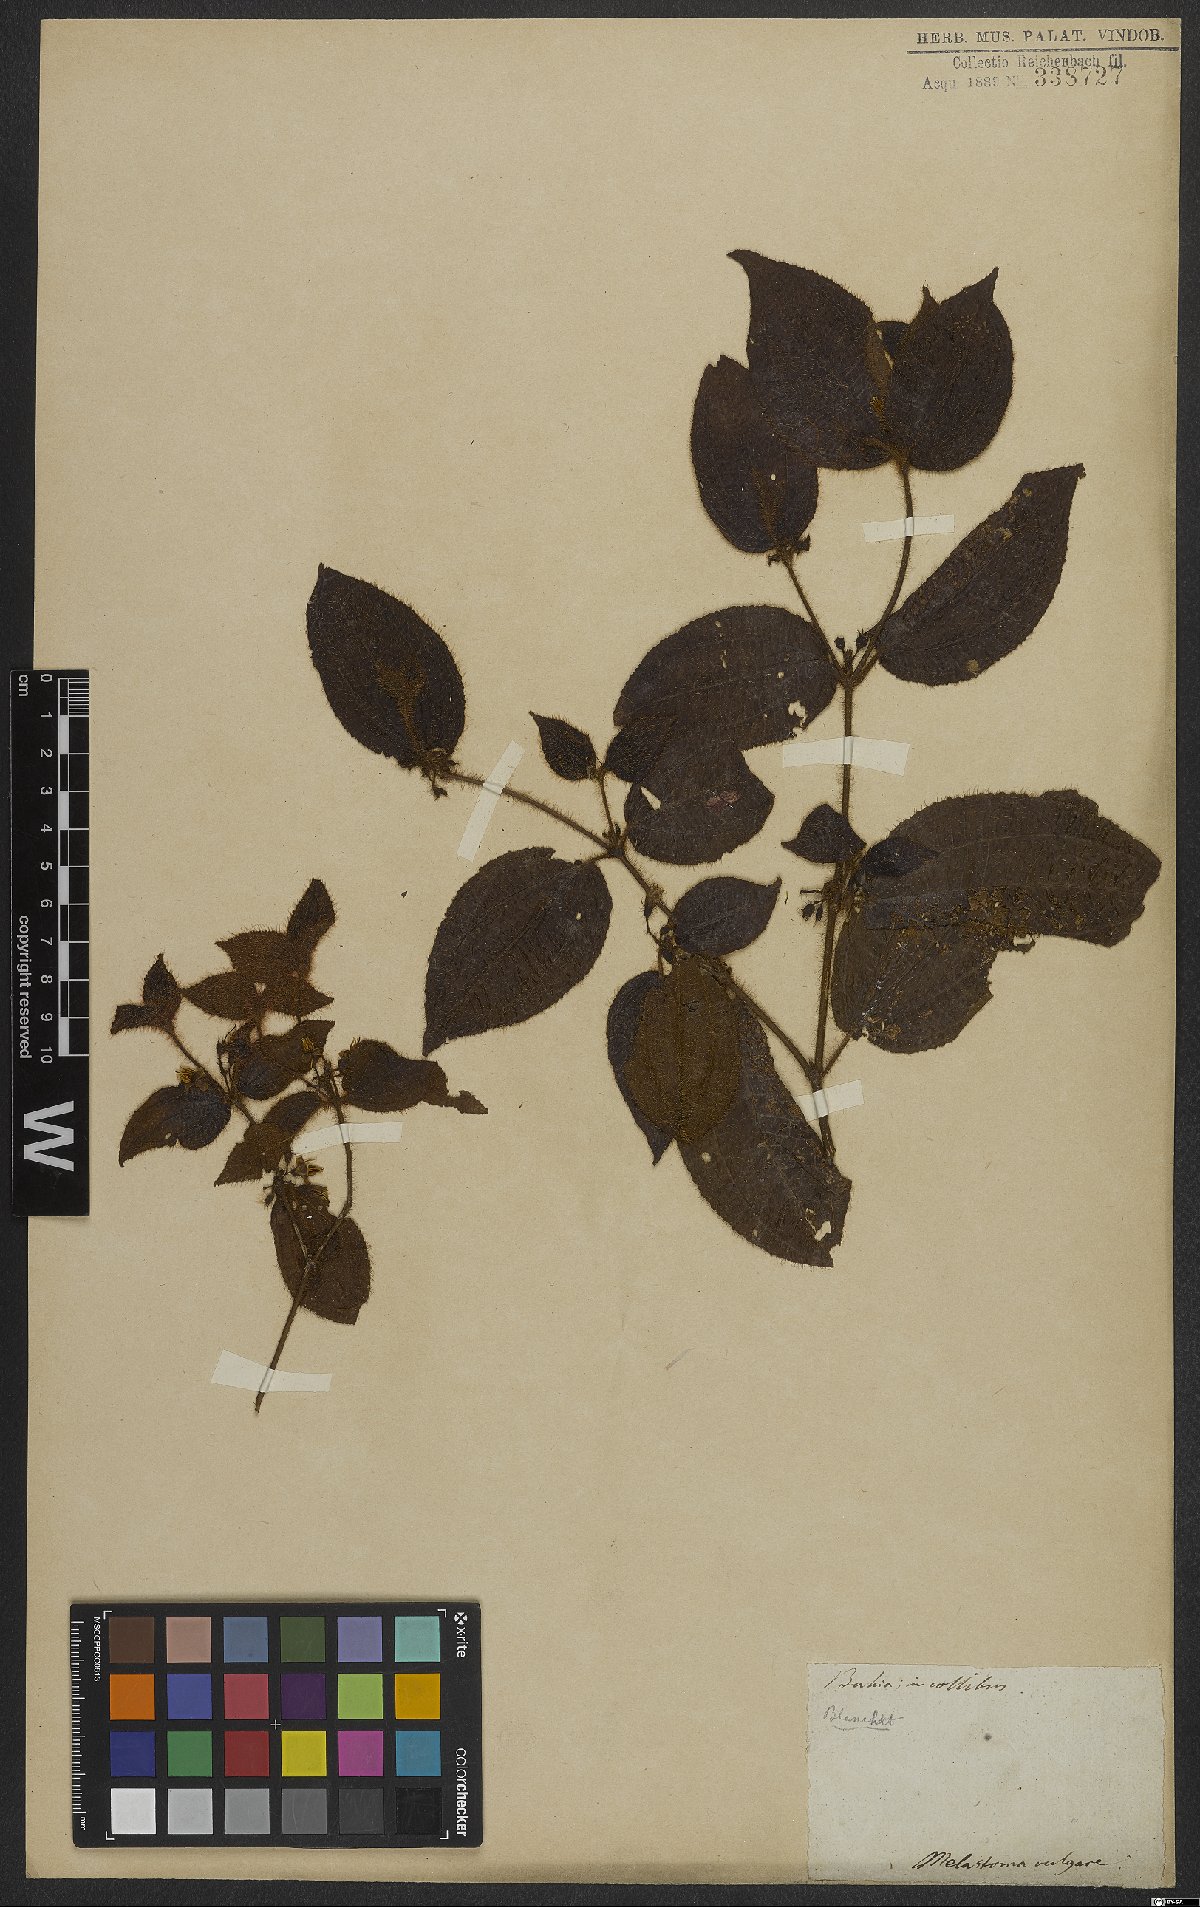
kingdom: Plantae
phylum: Tracheophyta
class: Magnoliopsida
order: Myrtales
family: Melastomataceae
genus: Miconia
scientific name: Miconia crenata
